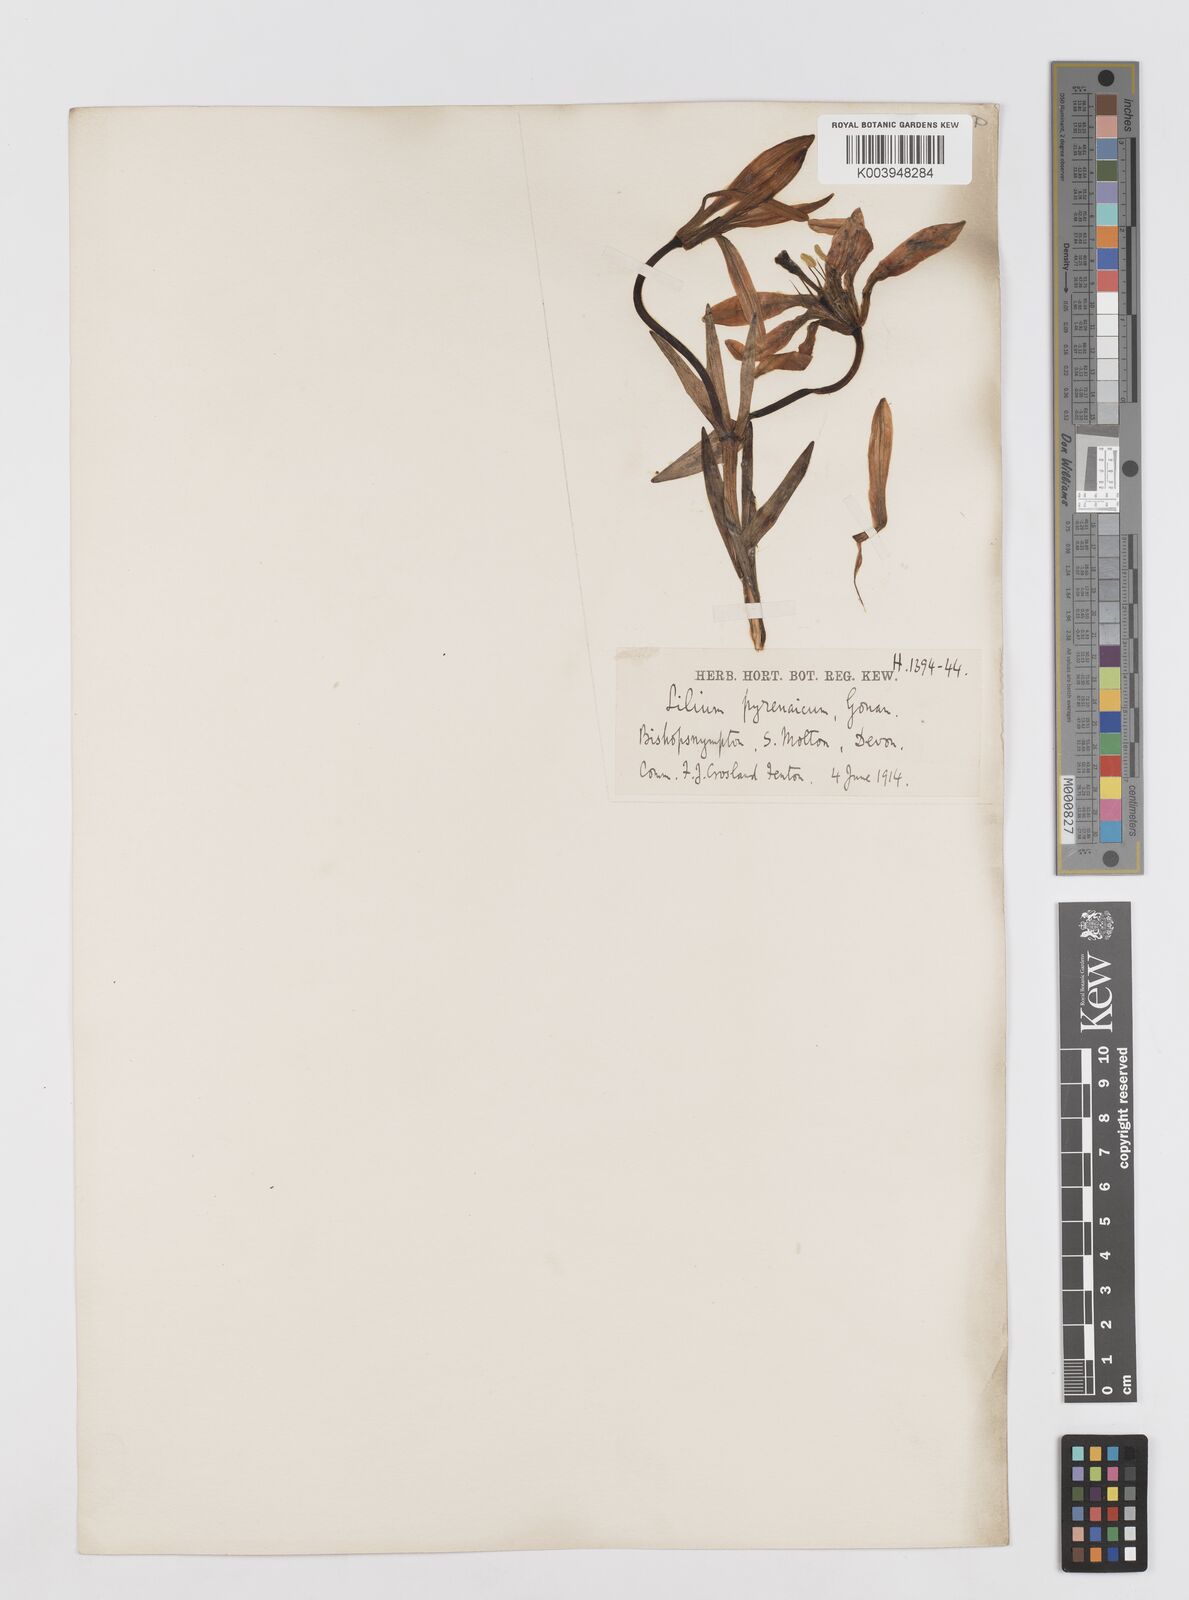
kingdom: Plantae
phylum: Tracheophyta
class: Liliopsida
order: Liliales
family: Liliaceae
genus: Lilium
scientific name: Lilium pyrenaicum
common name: Pyrenean lily
